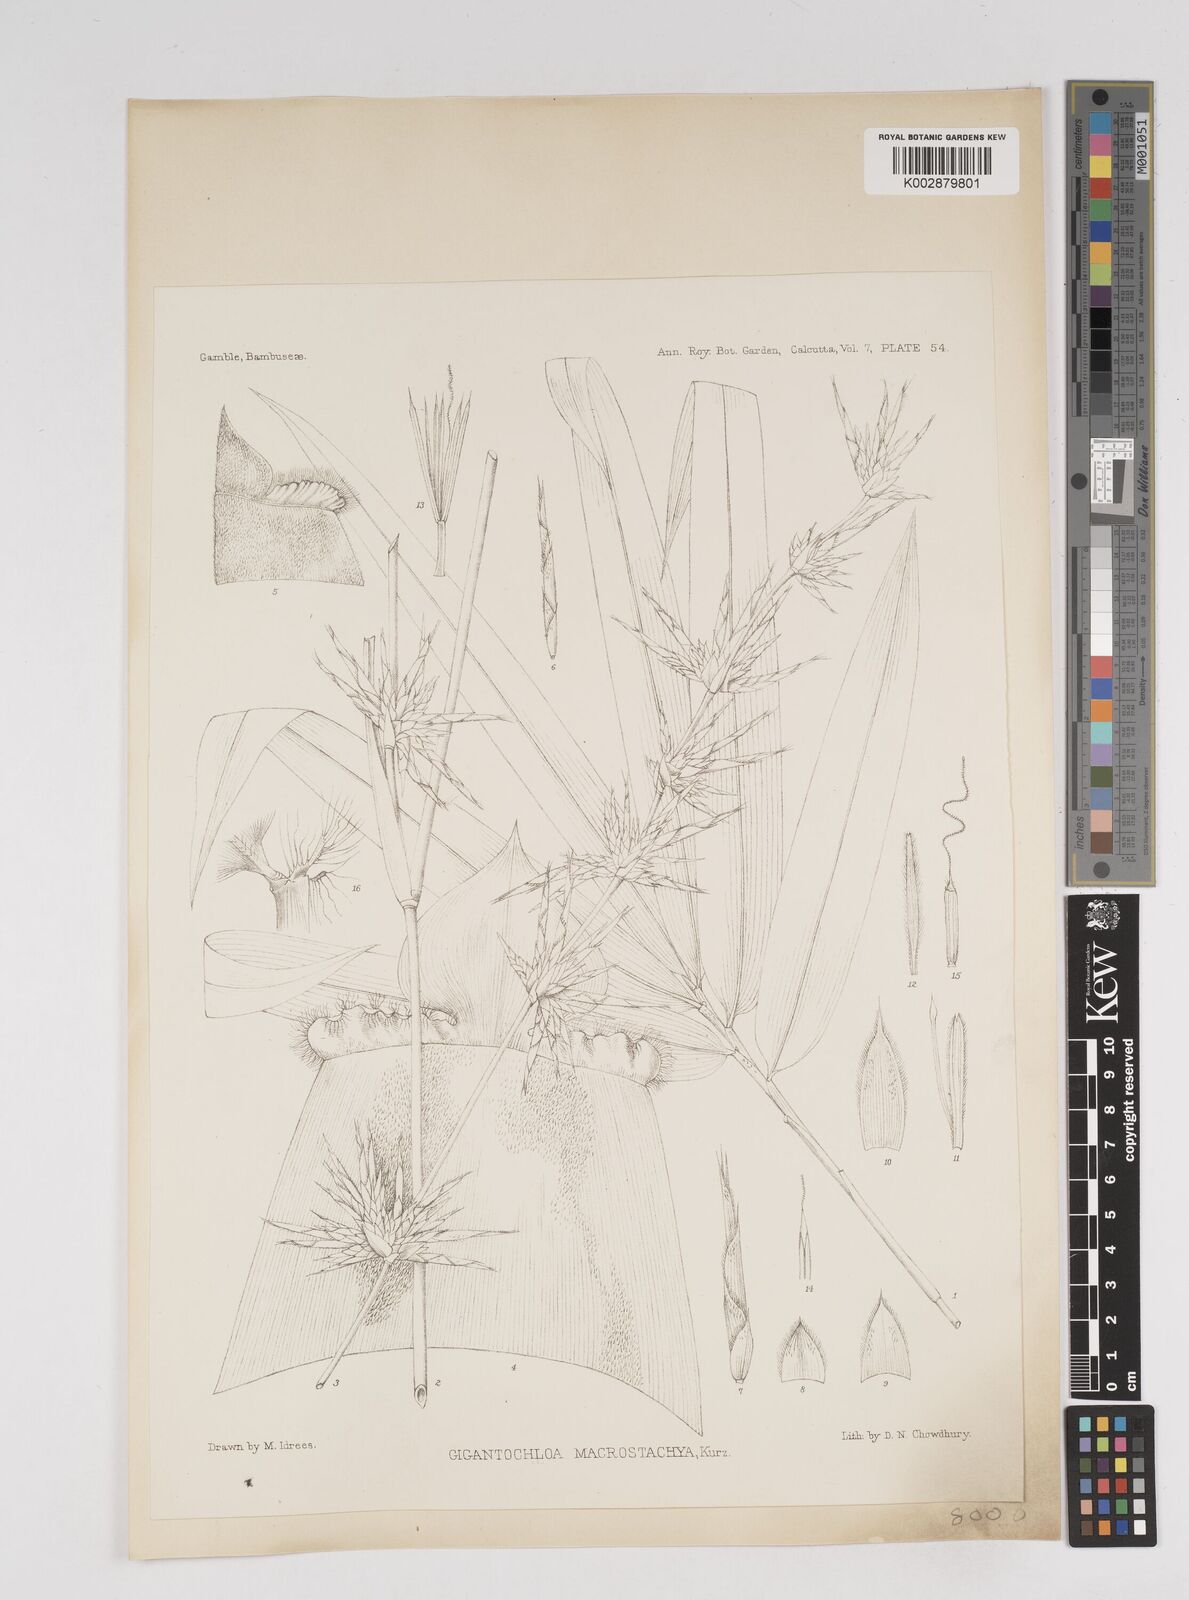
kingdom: Plantae
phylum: Tracheophyta
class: Liliopsida
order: Poales
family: Poaceae
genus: Gigantochloa
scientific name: Gigantochloa macrostachya
